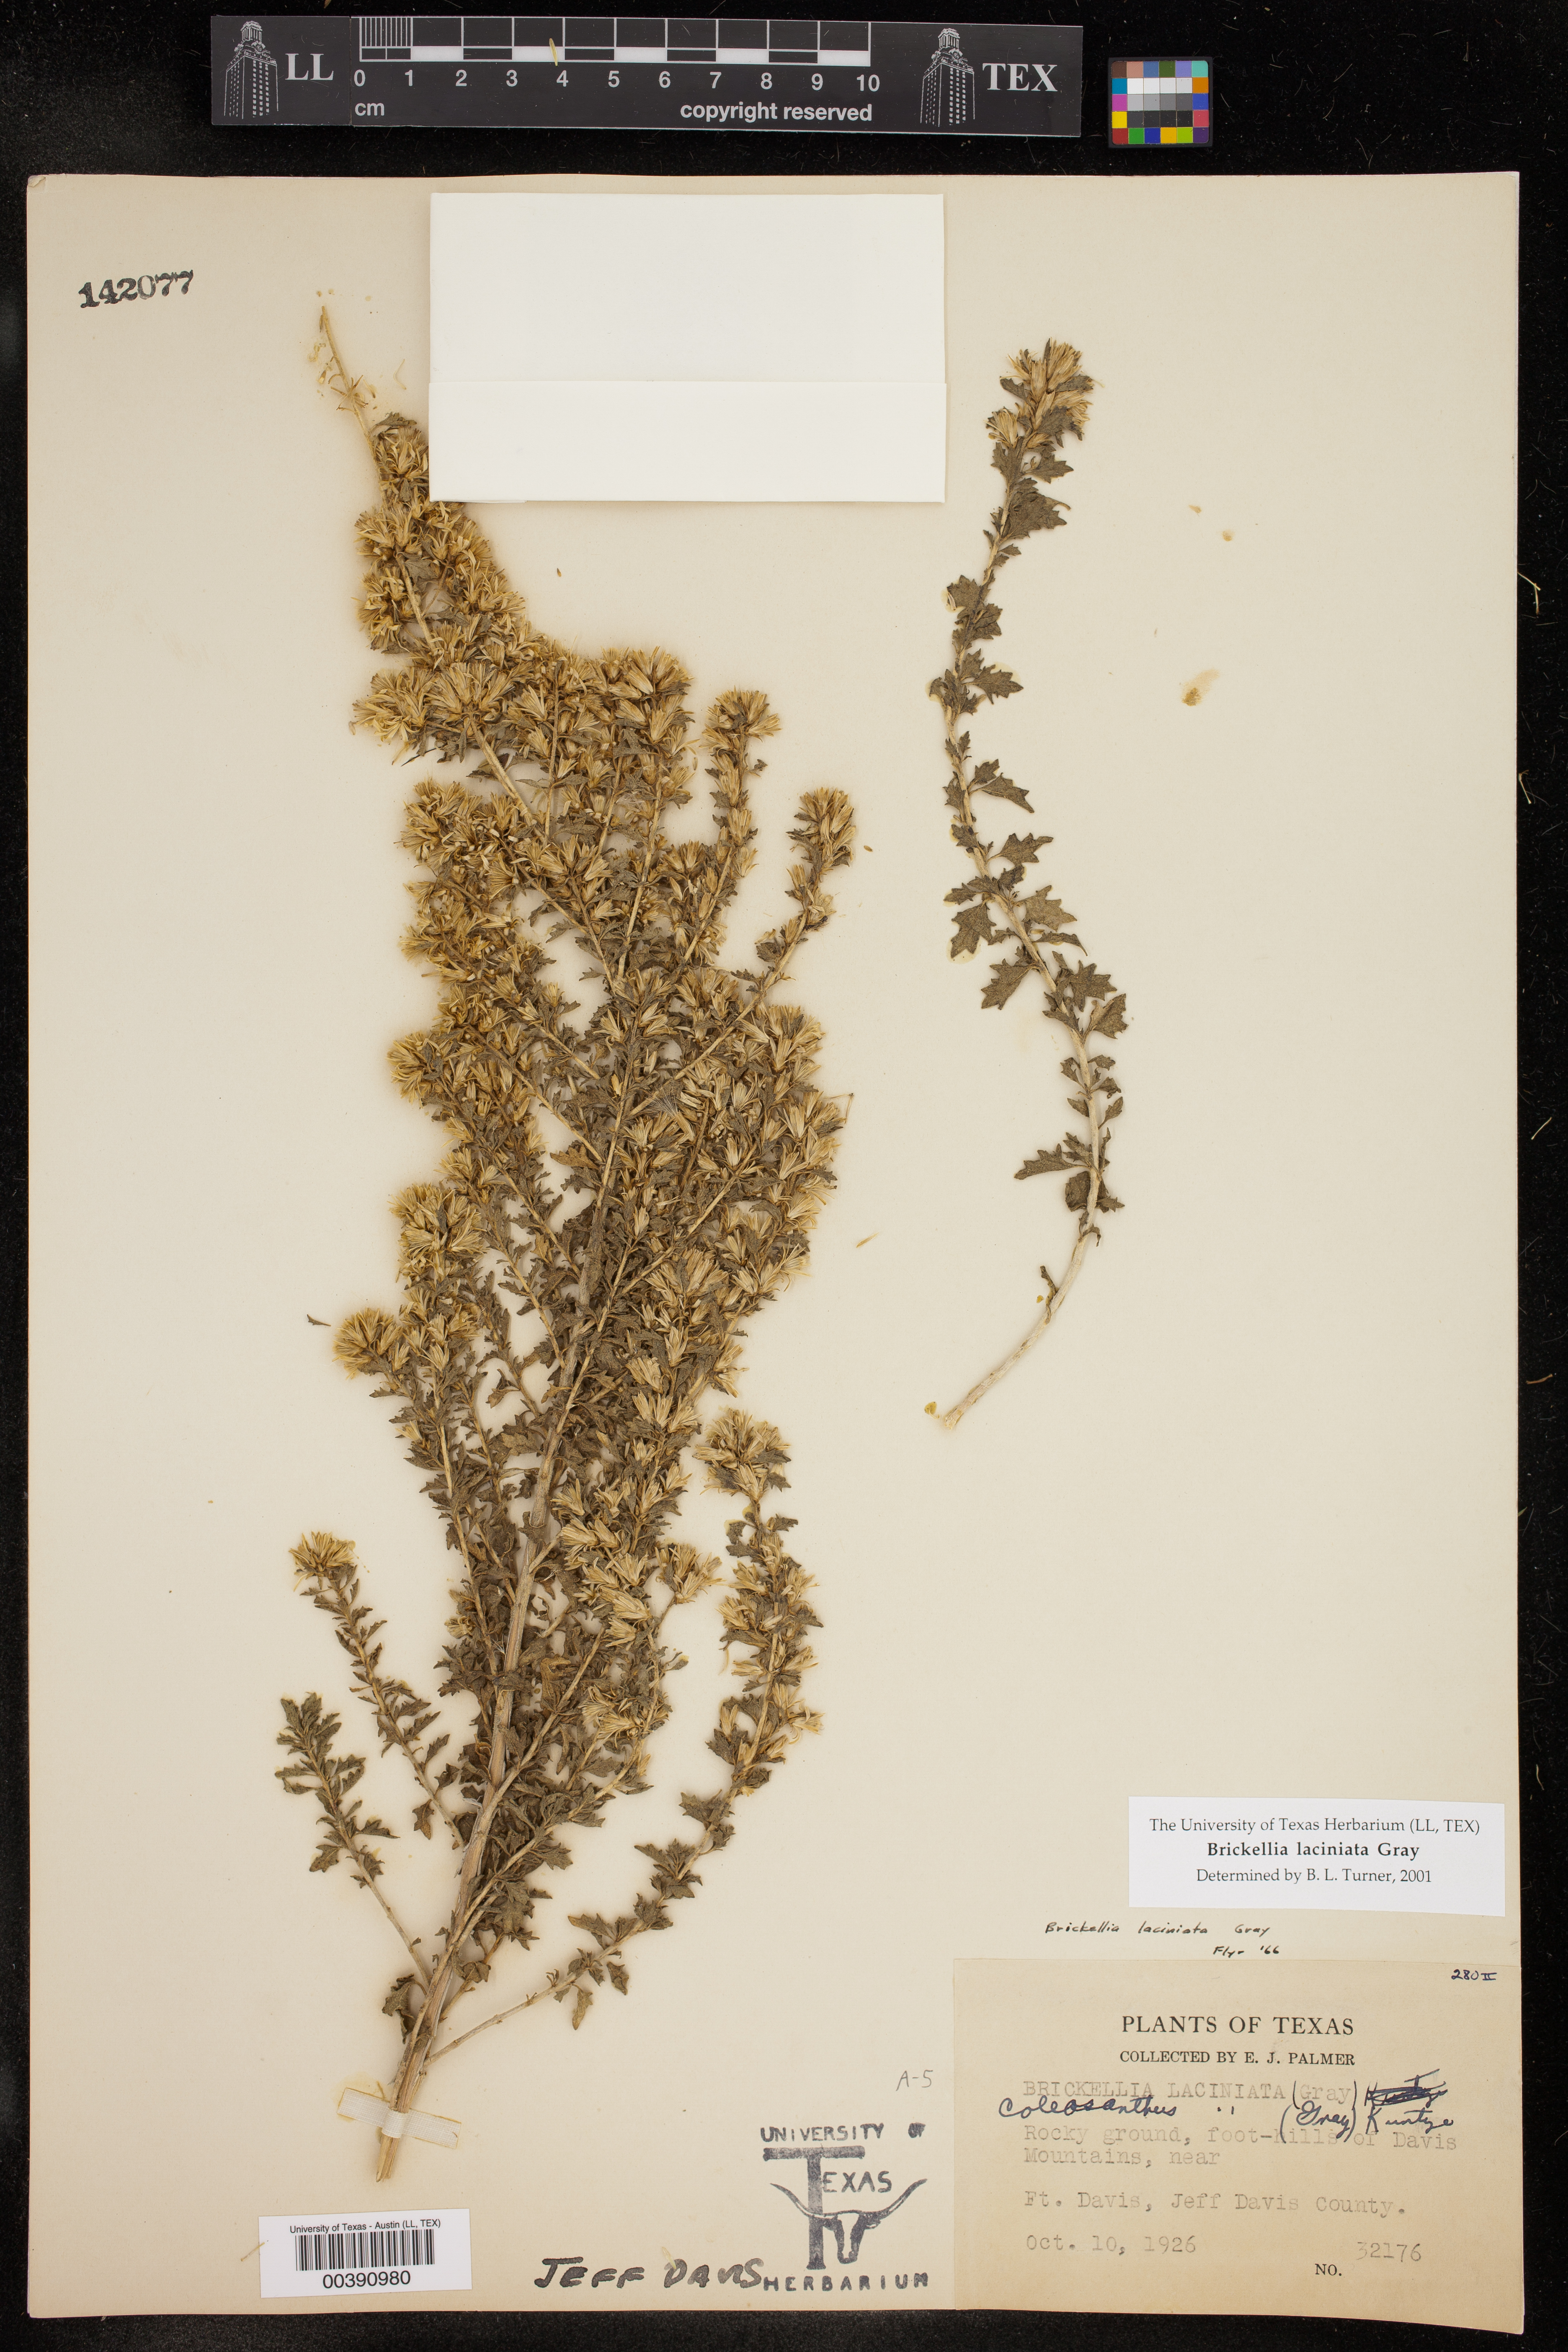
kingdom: Plantae
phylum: Tracheophyta
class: Magnoliopsida
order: Asterales
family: Asteraceae
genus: Brickellia
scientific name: Brickellia laciniata
